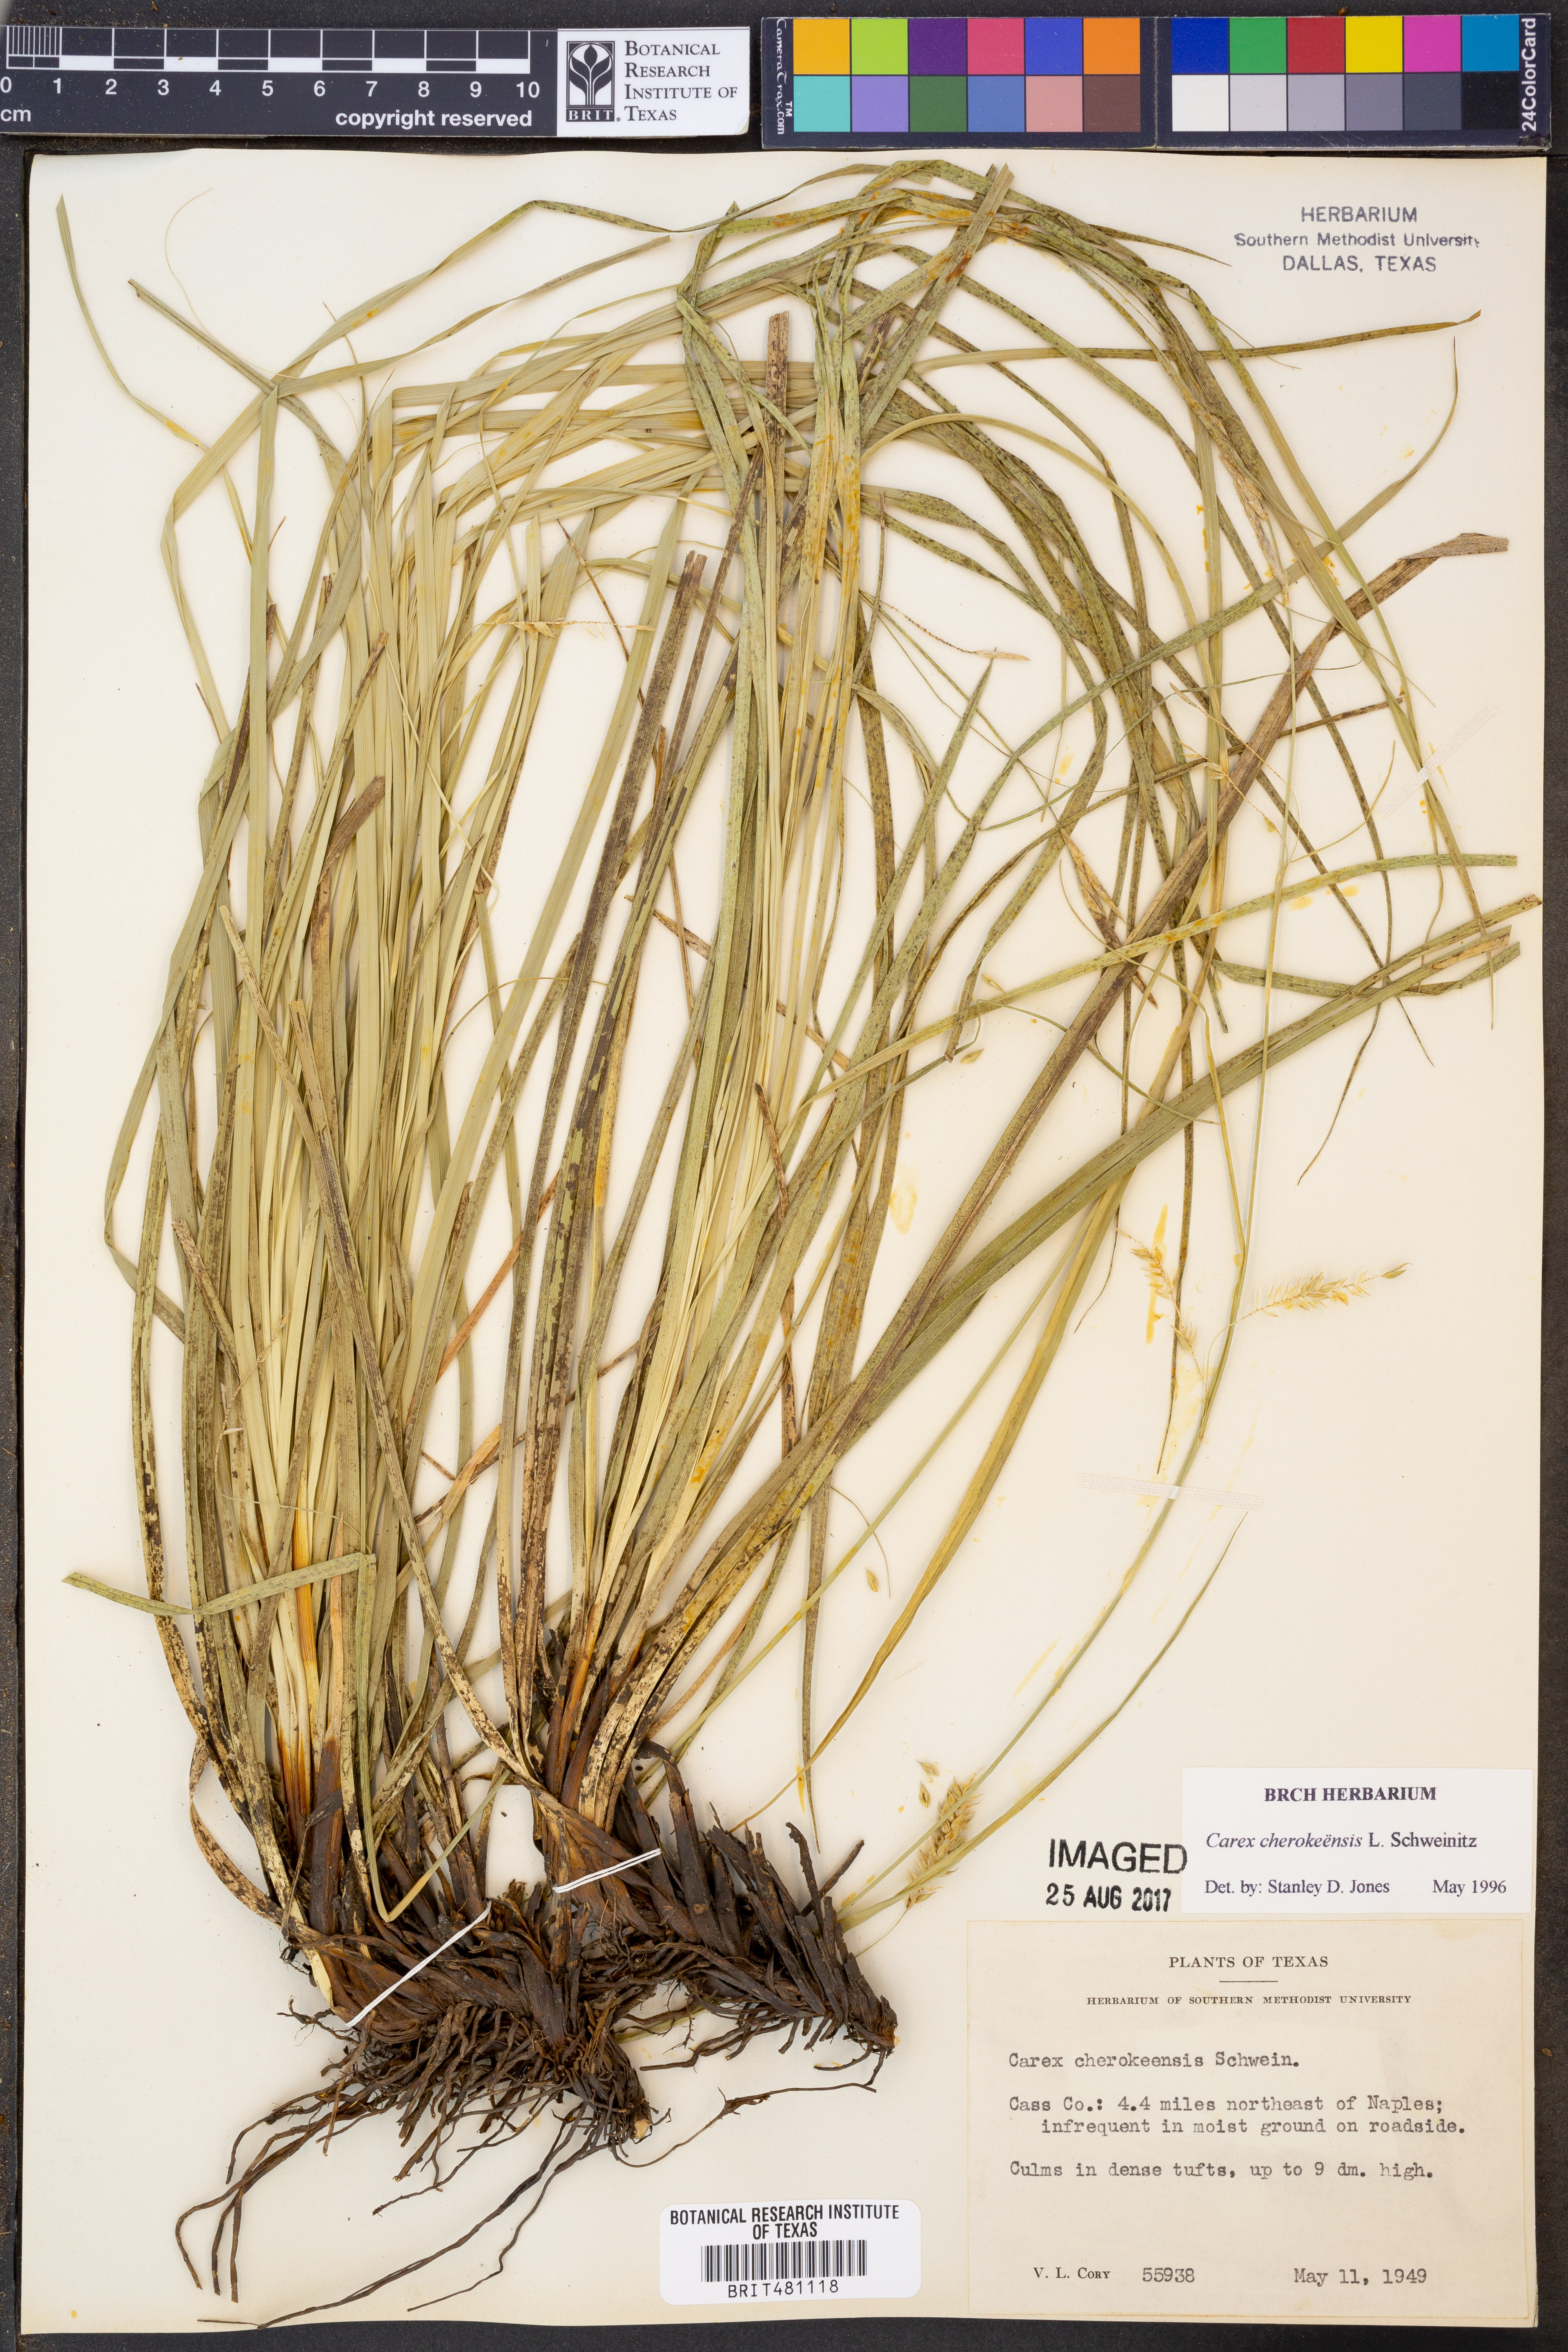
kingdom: Plantae
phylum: Tracheophyta
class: Liliopsida
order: Poales
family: Cyperaceae
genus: Carex
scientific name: Carex cherokeensis
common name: Cherokee sedge
